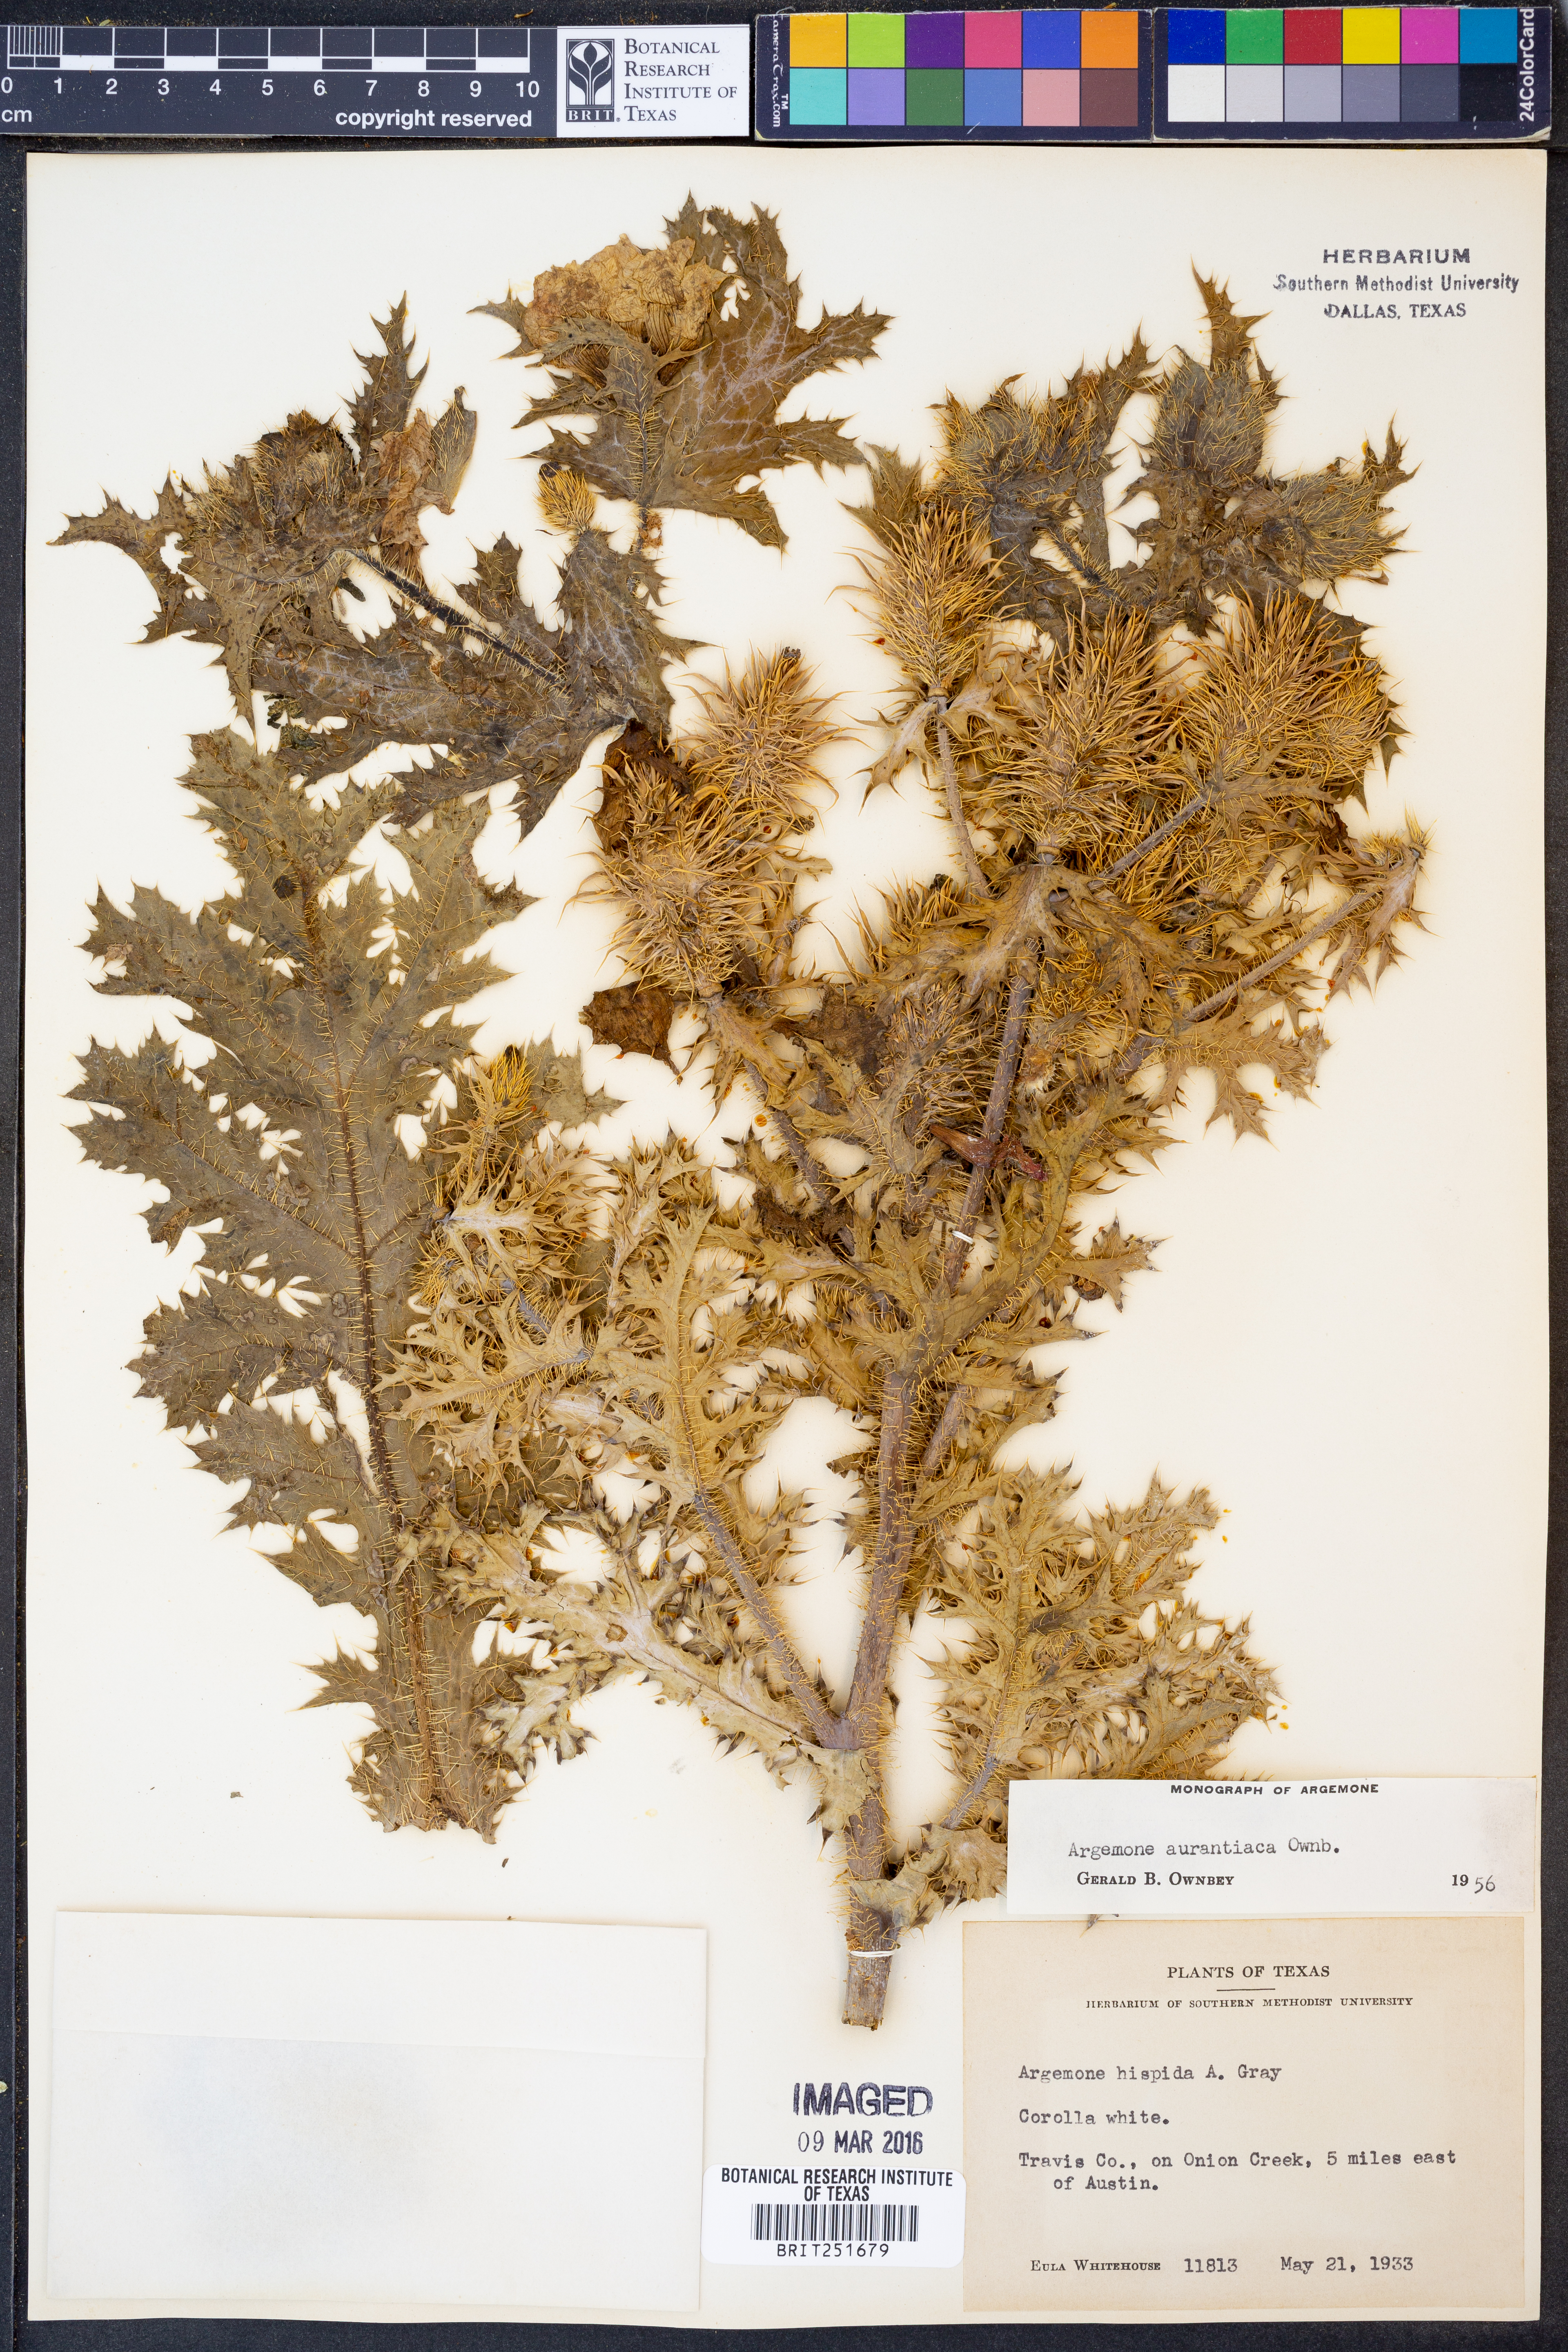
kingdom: Plantae
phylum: Tracheophyta
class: Magnoliopsida
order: Ranunculales
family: Papaveraceae
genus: Argemone
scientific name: Argemone aurantiaca
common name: Texas prickly-poppy
